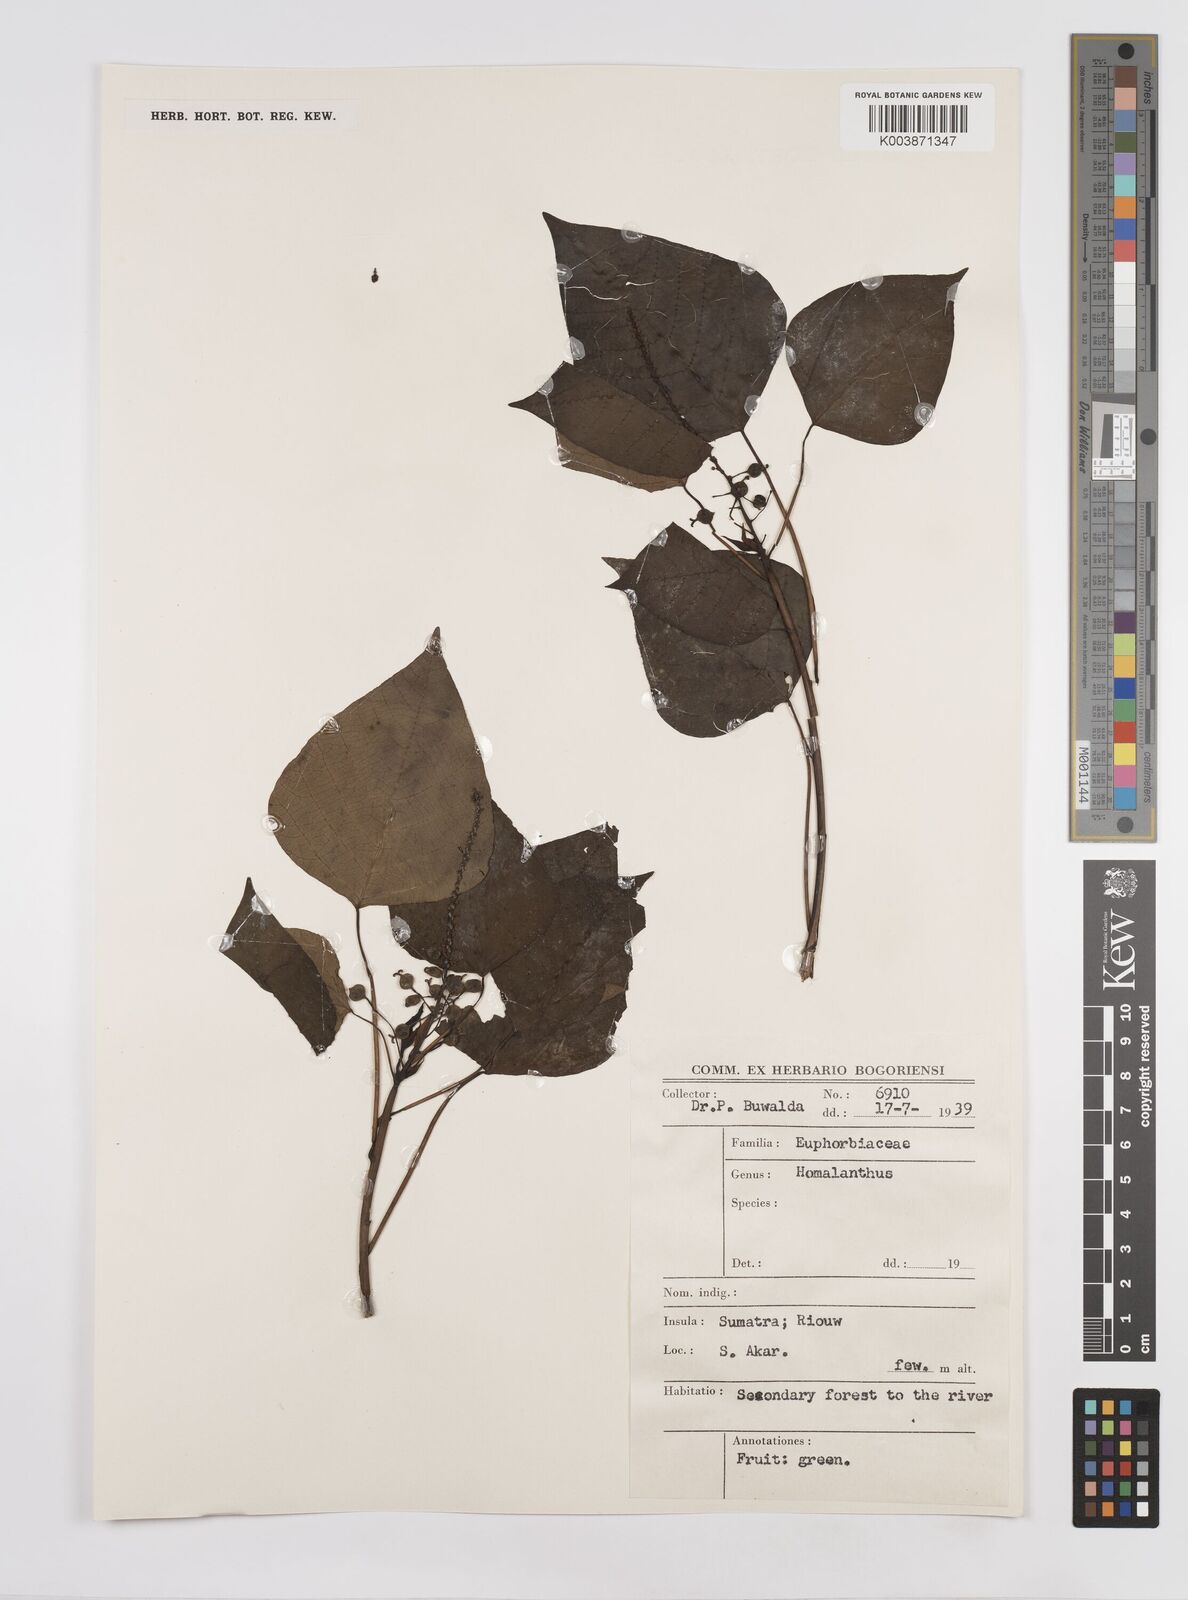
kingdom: Plantae
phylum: Tracheophyta
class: Magnoliopsida
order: Malpighiales
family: Euphorbiaceae
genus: Homalanthus
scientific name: Homalanthus populneus
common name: Spurge
